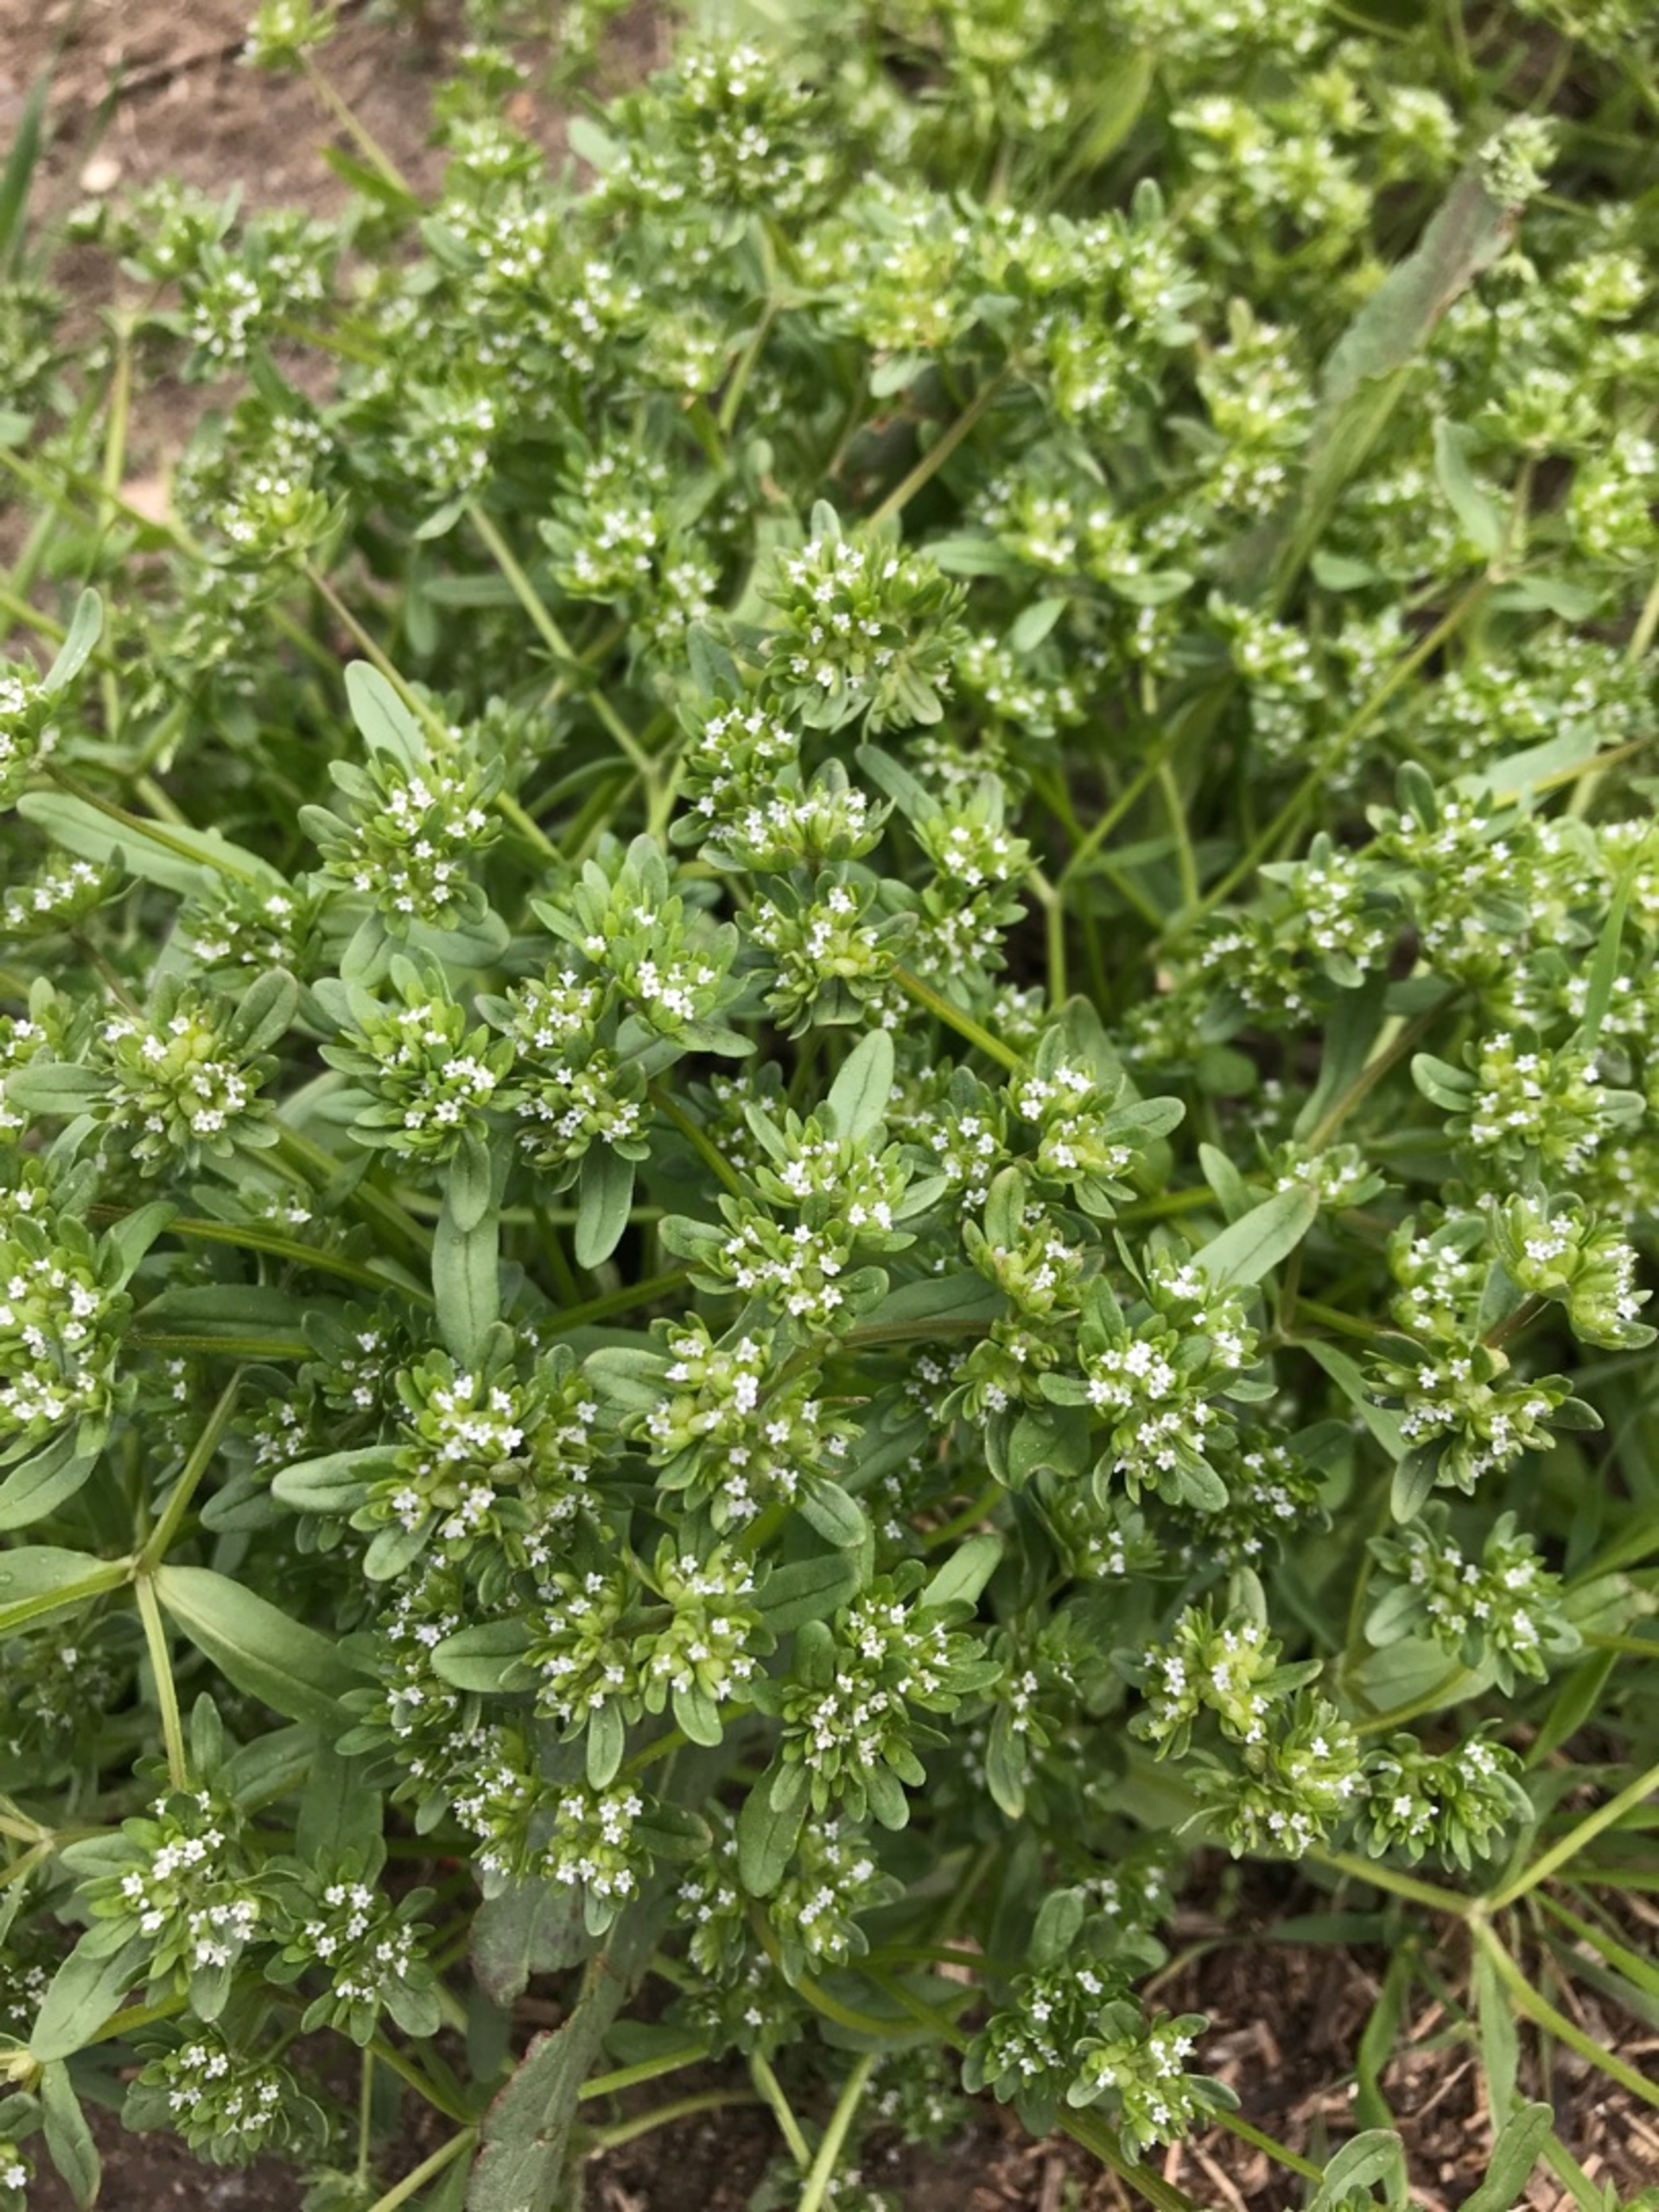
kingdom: Plantae
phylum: Tracheophyta
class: Magnoliopsida
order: Dipsacales
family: Caprifoliaceae
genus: Valerianella
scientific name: Valerianella locusta
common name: Tandfri vårsalat
